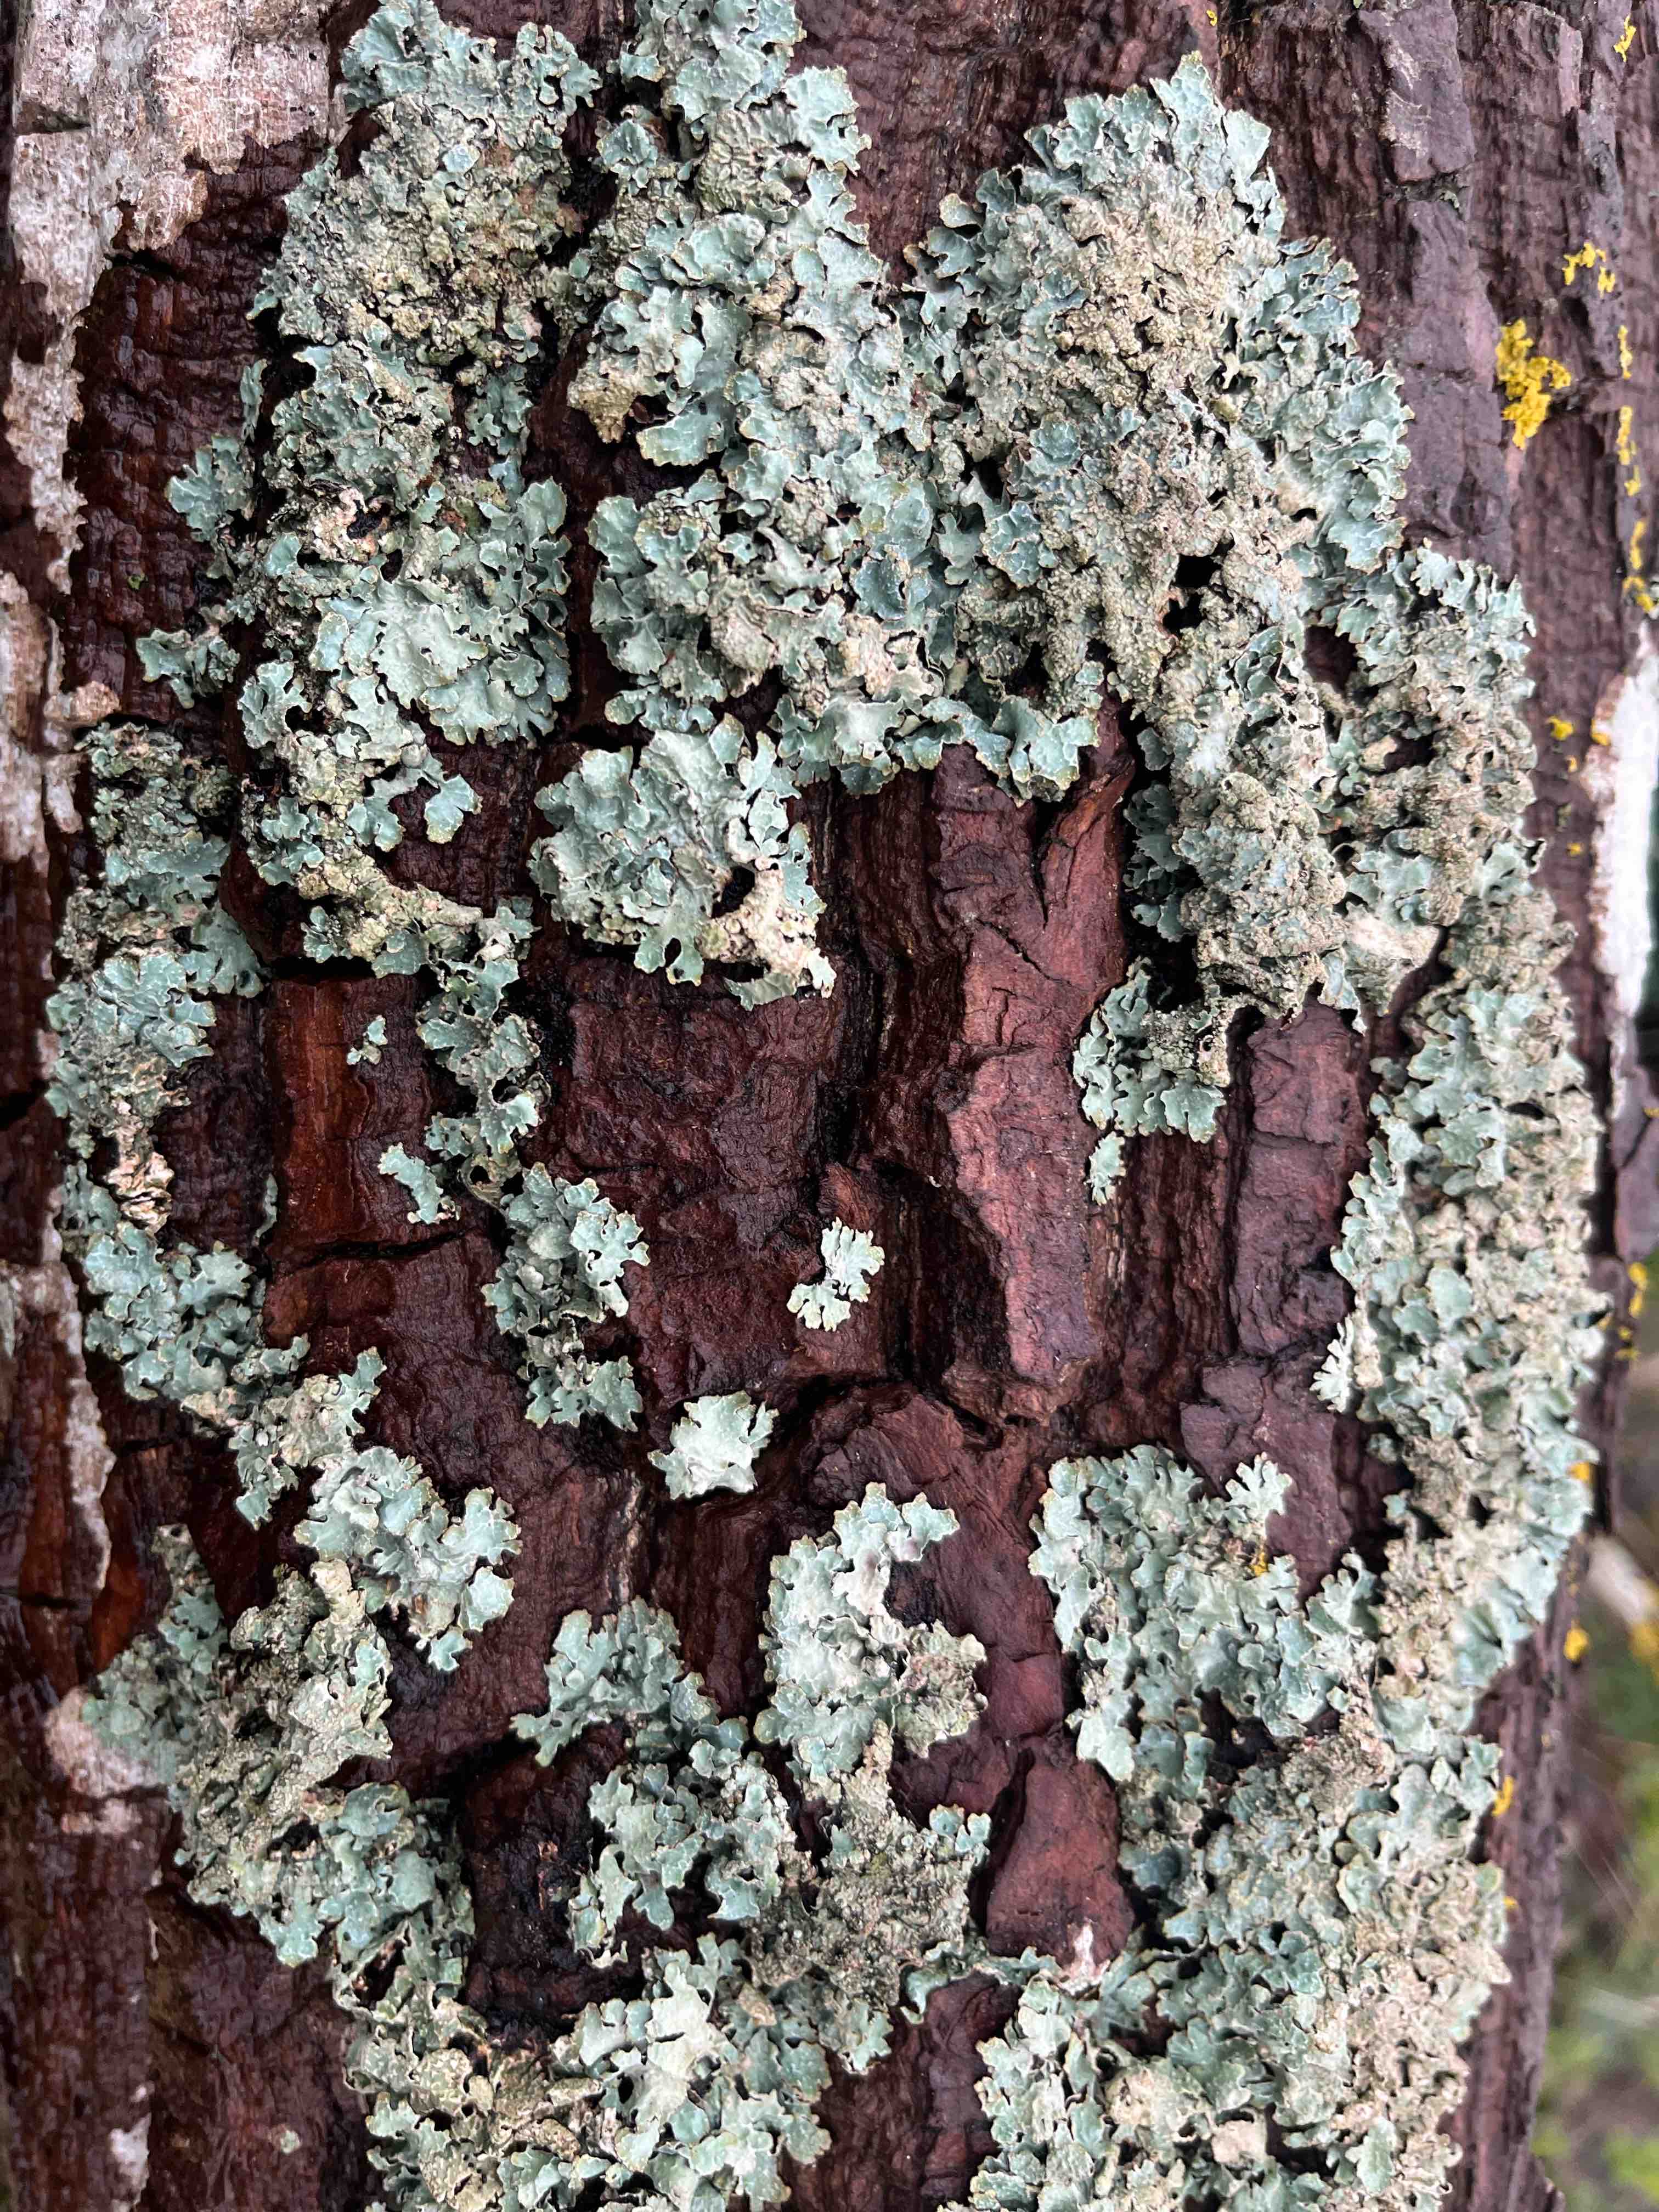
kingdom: Fungi
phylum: Ascomycota
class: Lecanoromycetes
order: Lecanorales
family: Parmeliaceae
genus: Parmelia
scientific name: Parmelia sulcata
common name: rynket skållav
